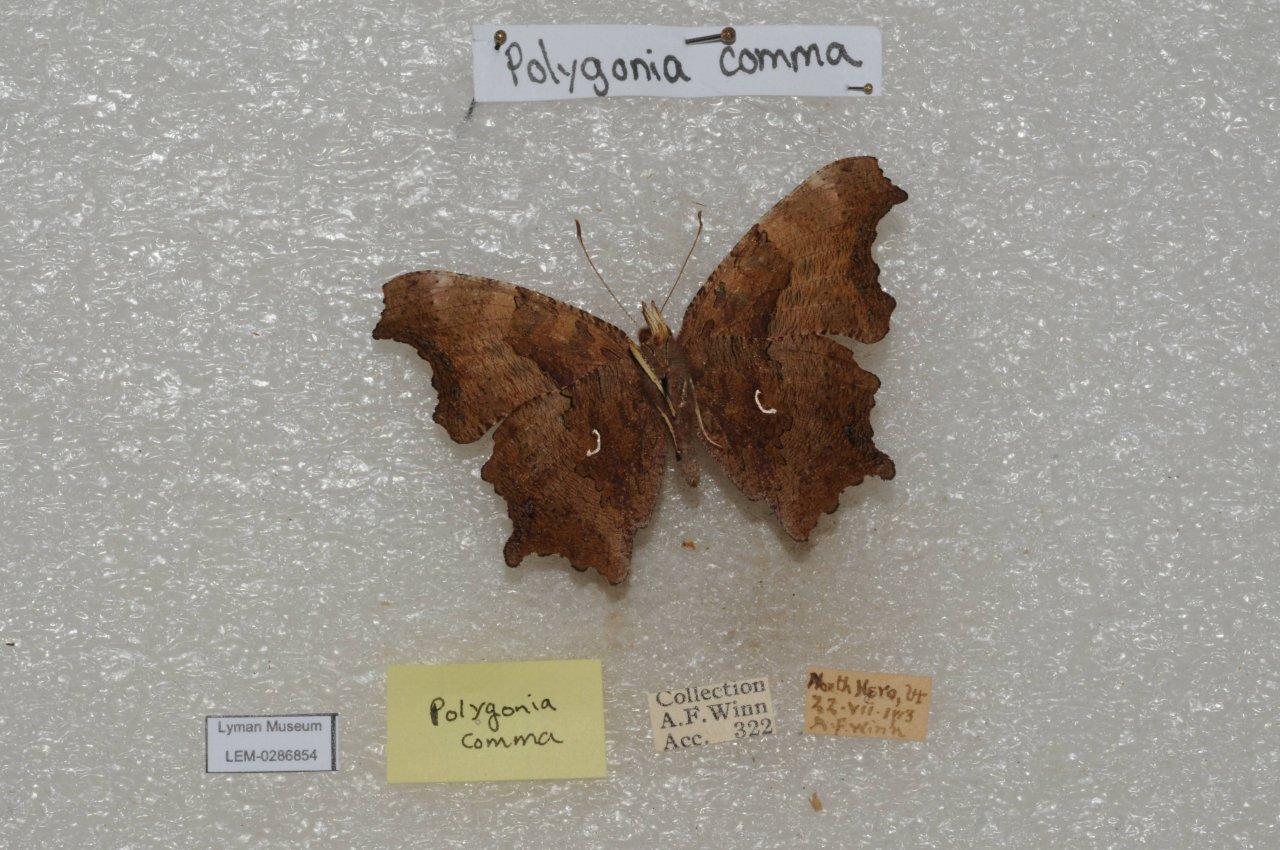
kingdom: Animalia
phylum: Arthropoda
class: Insecta
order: Lepidoptera
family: Nymphalidae
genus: Polygonia
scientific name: Polygonia comma
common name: Eastern Comma
